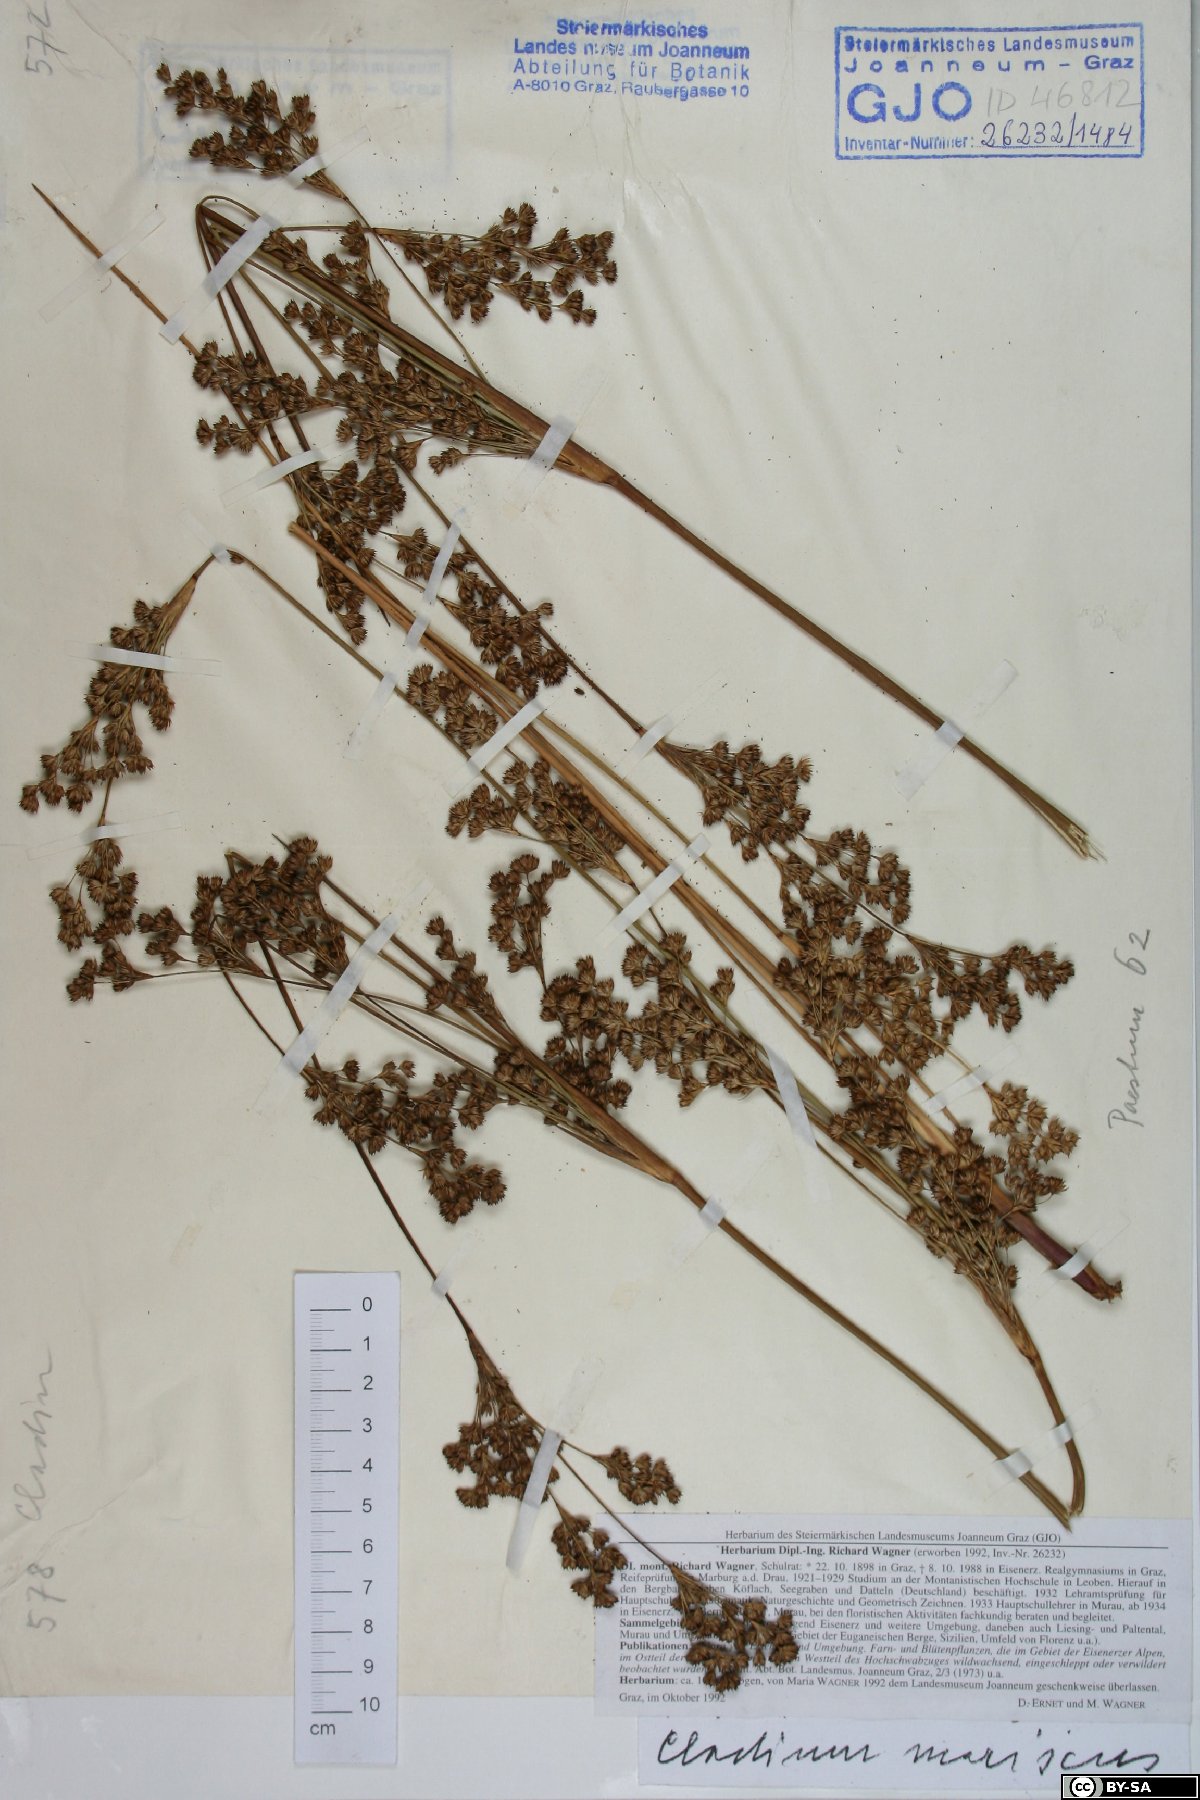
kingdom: Plantae
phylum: Tracheophyta
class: Liliopsida
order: Poales
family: Cyperaceae
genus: Cladium
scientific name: Cladium mariscus
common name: Great fen-sedge
